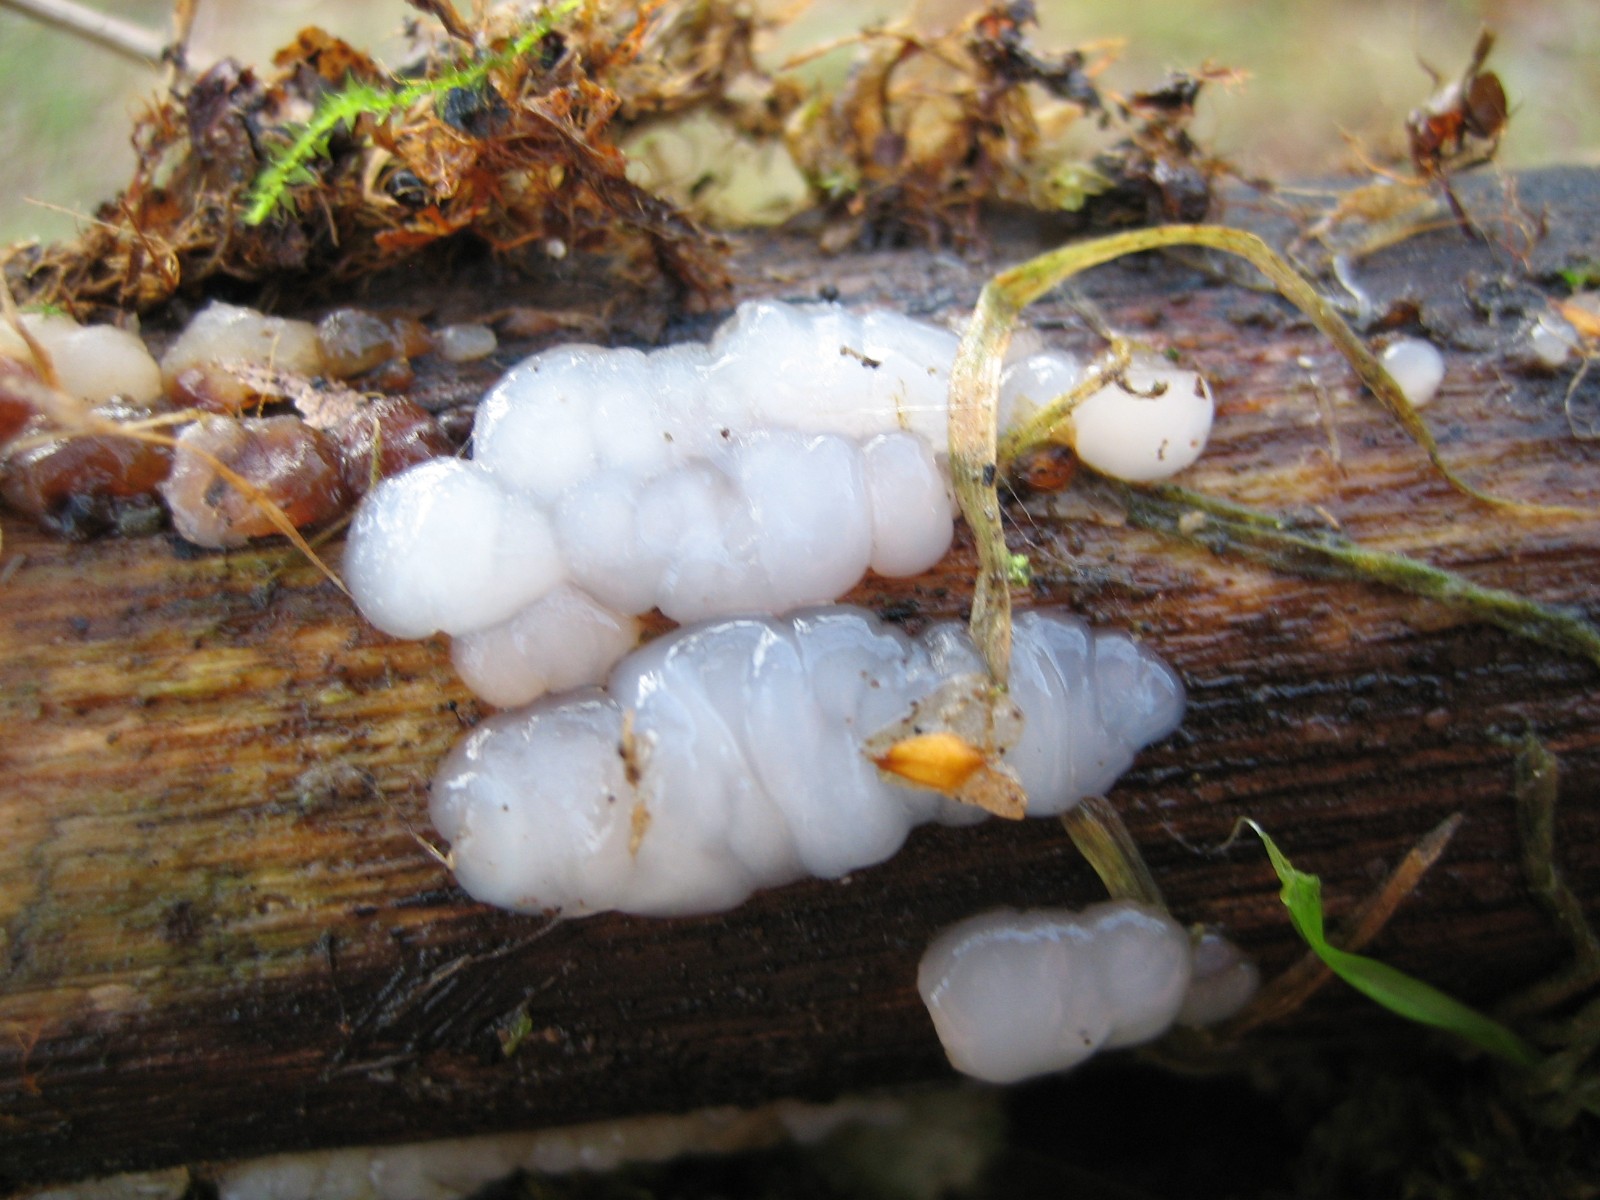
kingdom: Fungi
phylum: Basidiomycota
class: Agaricomycetes
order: Auriculariales
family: Auriculariaceae
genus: Exidia
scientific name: Exidia thuretiana
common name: hvidlig bævretop
